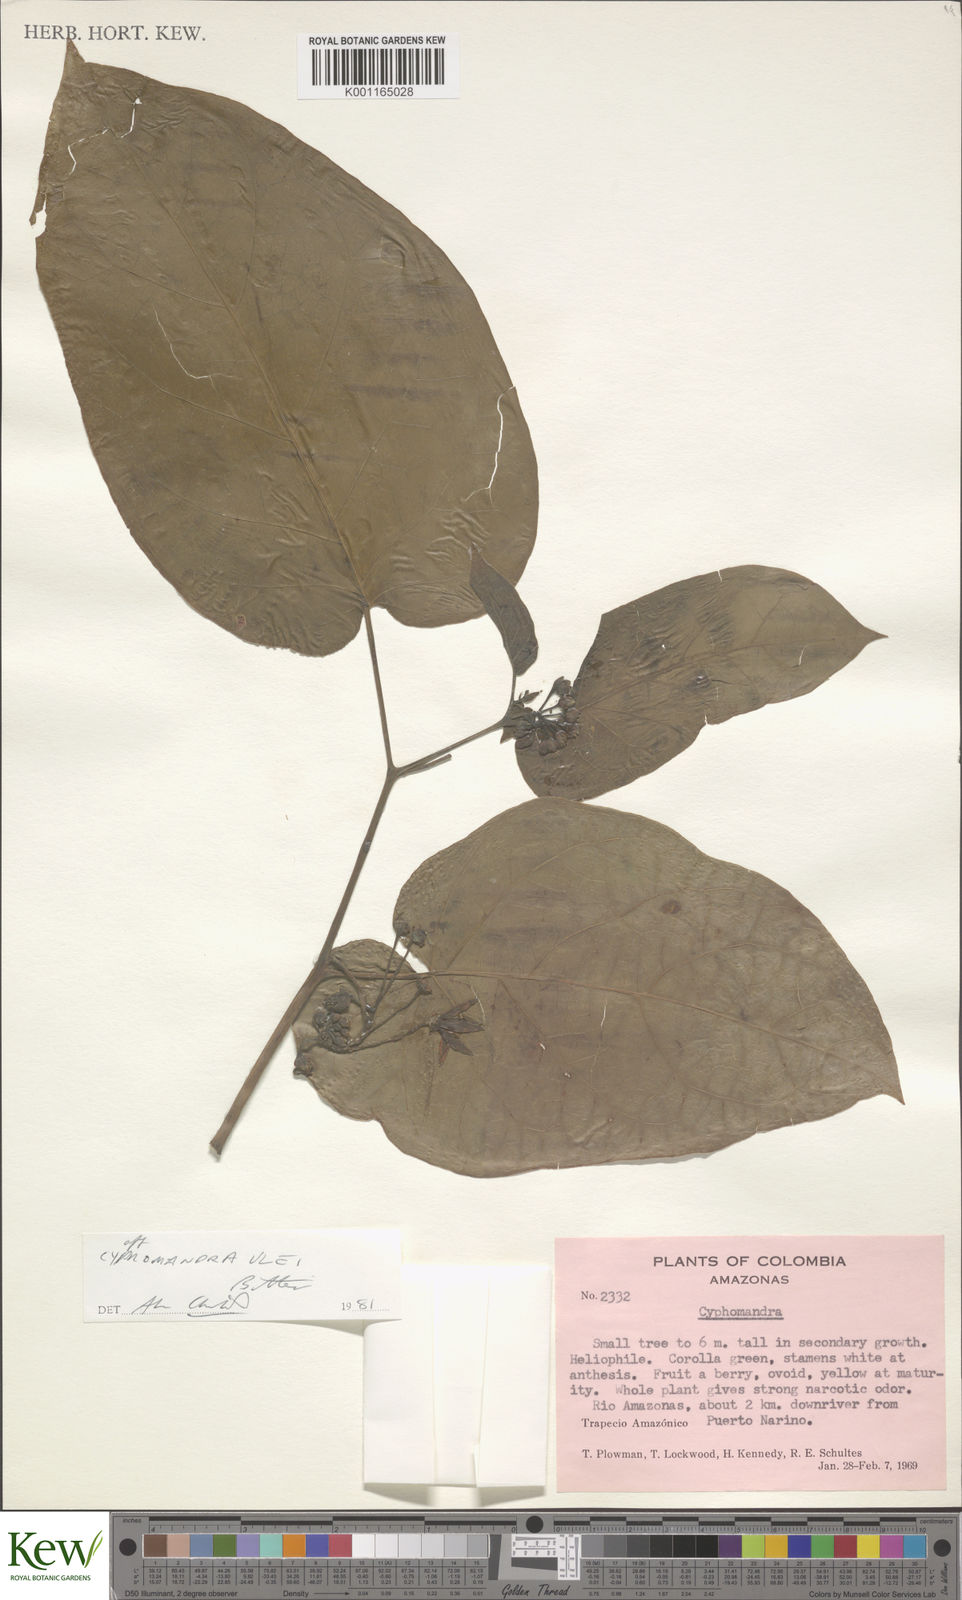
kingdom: Plantae
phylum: Tracheophyta
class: Magnoliopsida
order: Solanales
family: Solanaceae
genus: Solanum
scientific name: Solanum obliquum
